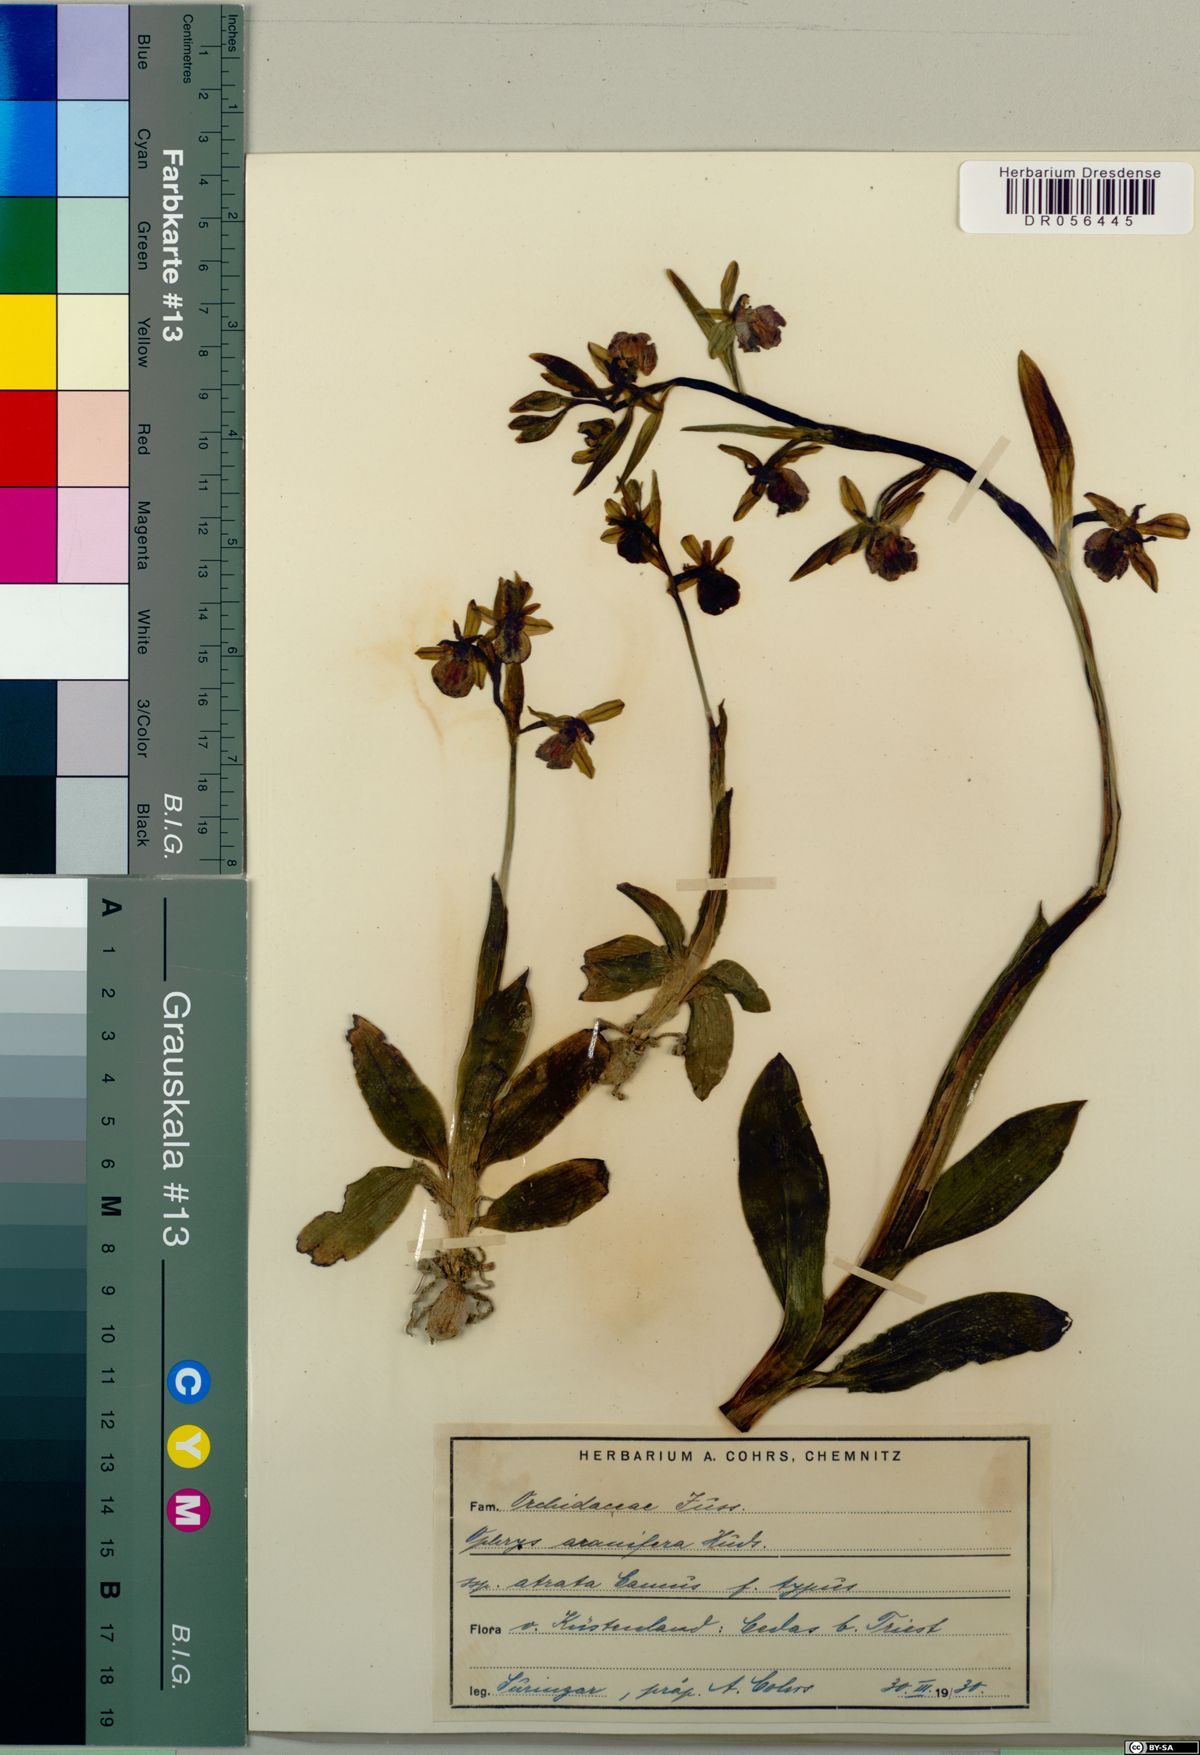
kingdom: Plantae
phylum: Tracheophyta
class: Liliopsida
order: Asparagales
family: Orchidaceae
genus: Ophrys
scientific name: Ophrys sphegodes
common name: Early spider-orchid
